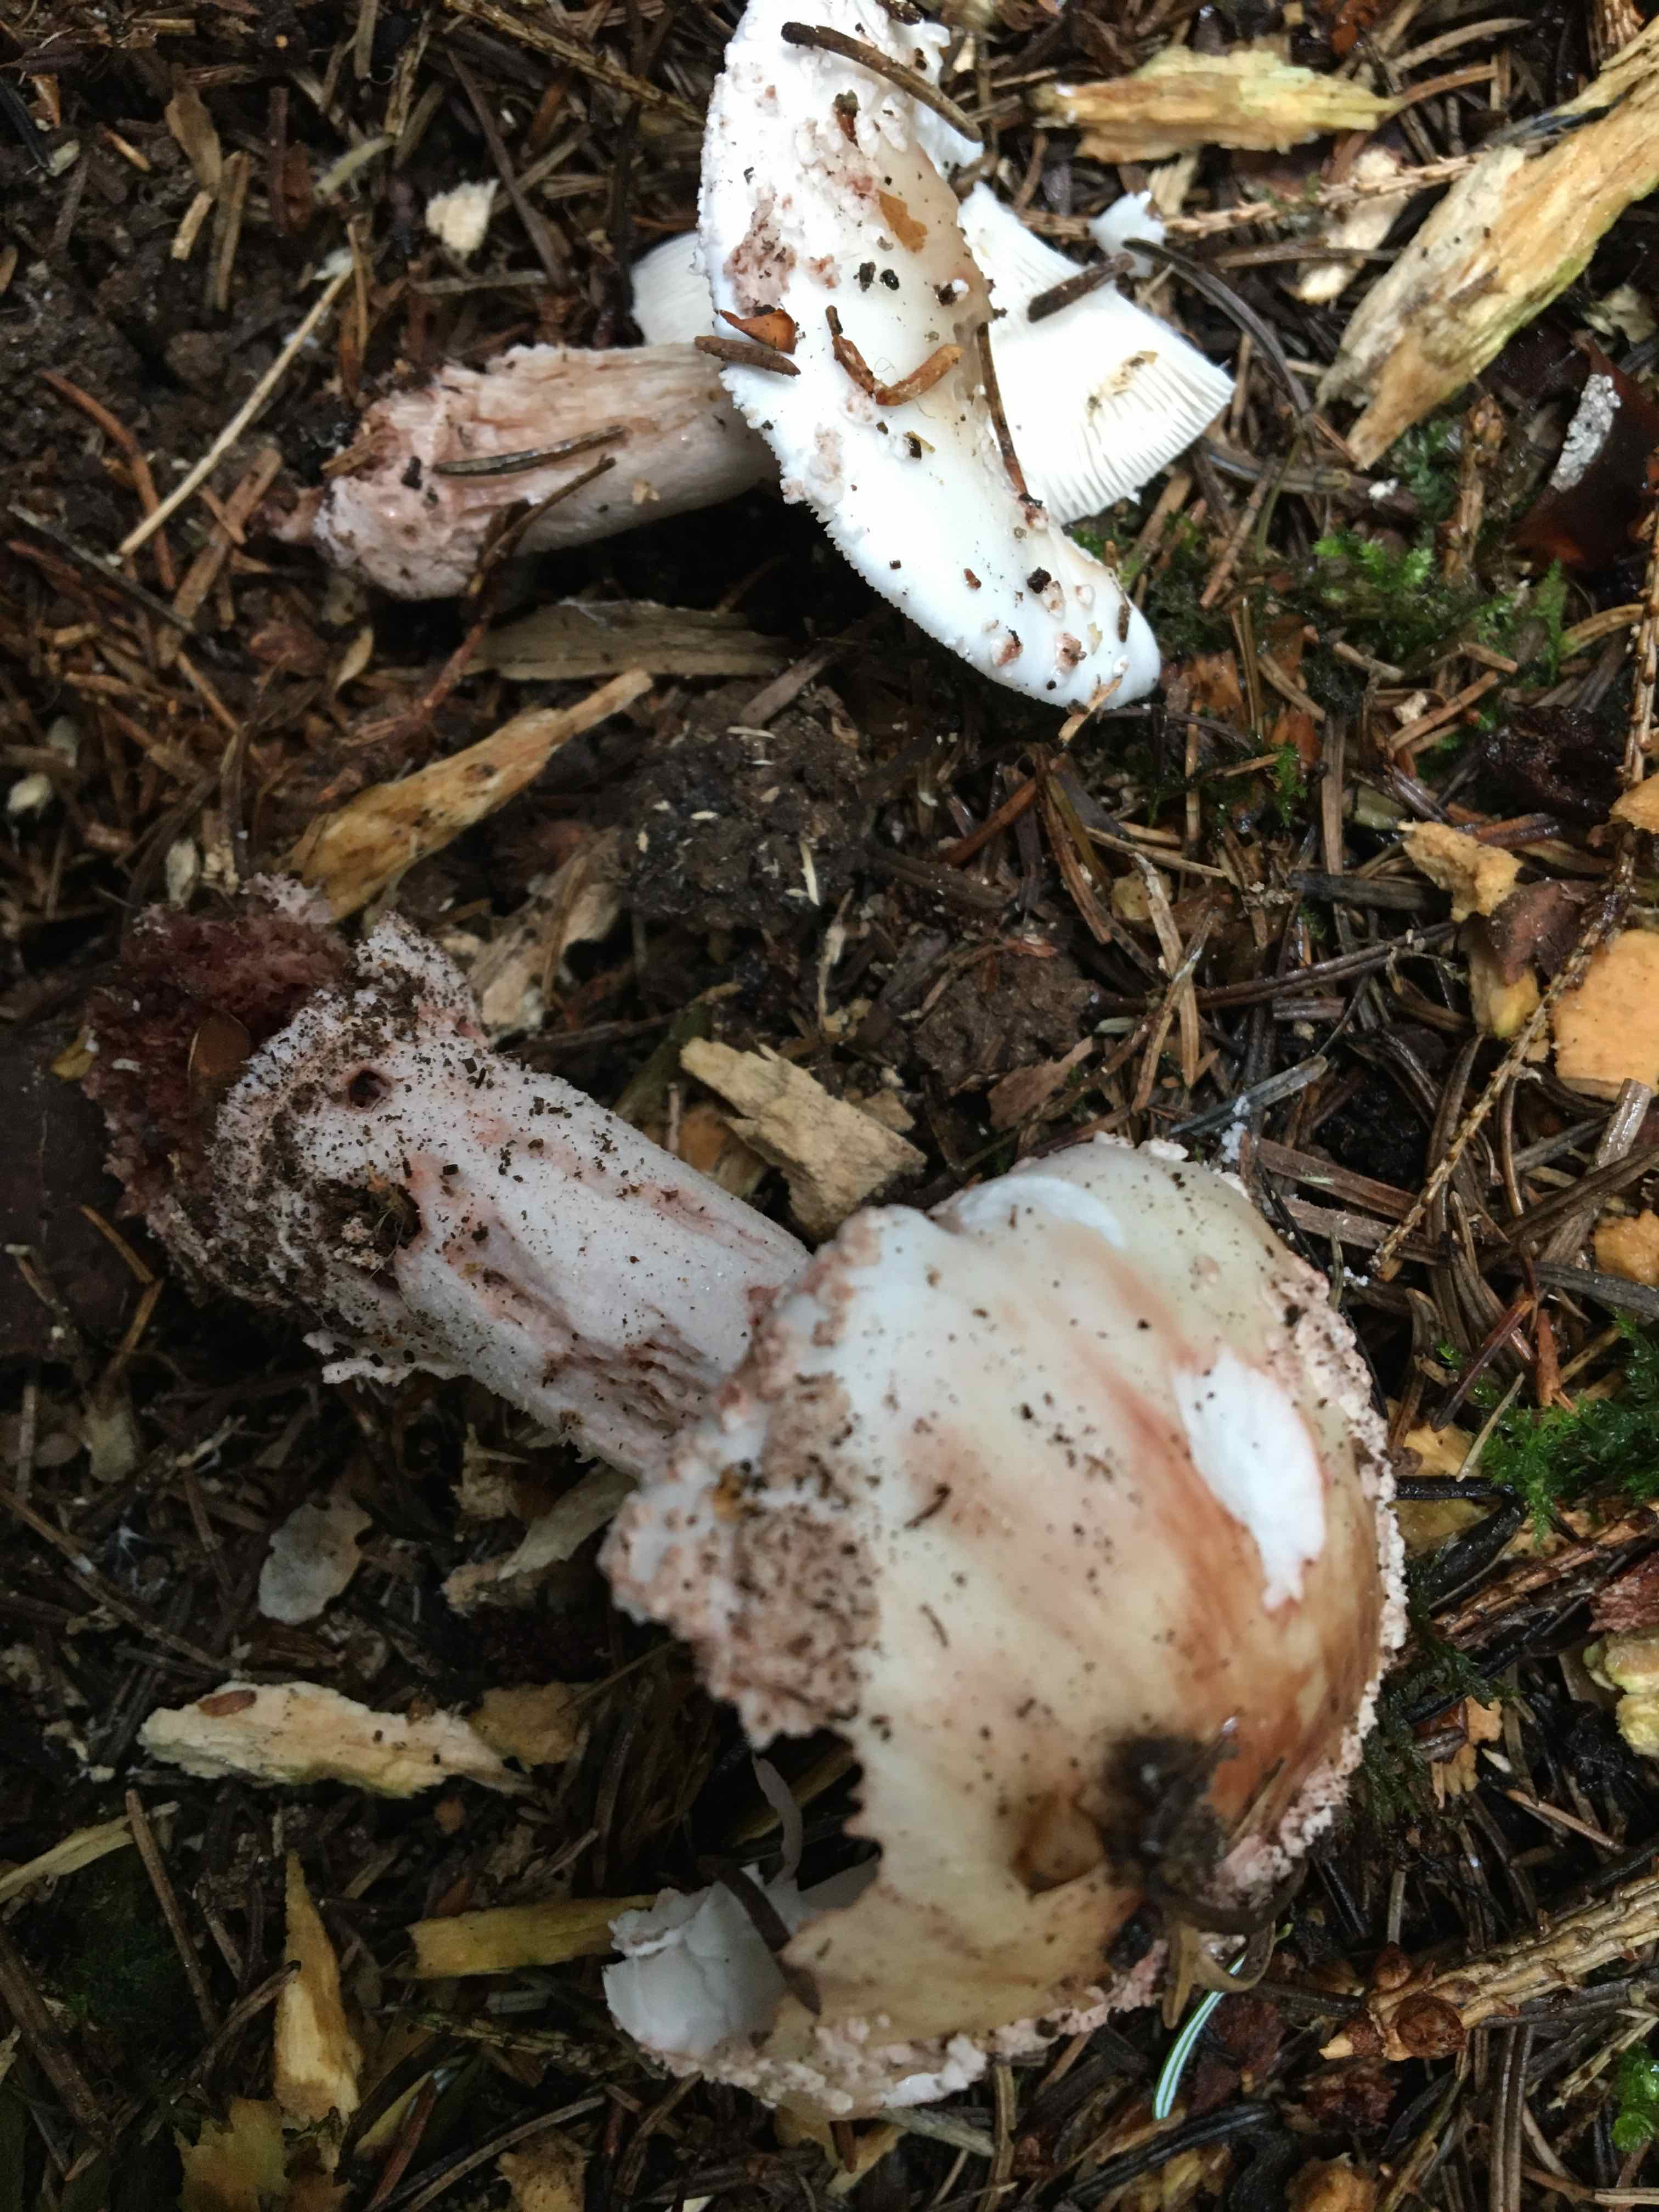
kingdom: Fungi
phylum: Basidiomycota
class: Agaricomycetes
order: Agaricales
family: Amanitaceae
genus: Amanita
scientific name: Amanita rubescens
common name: rødmende fluesvamp
